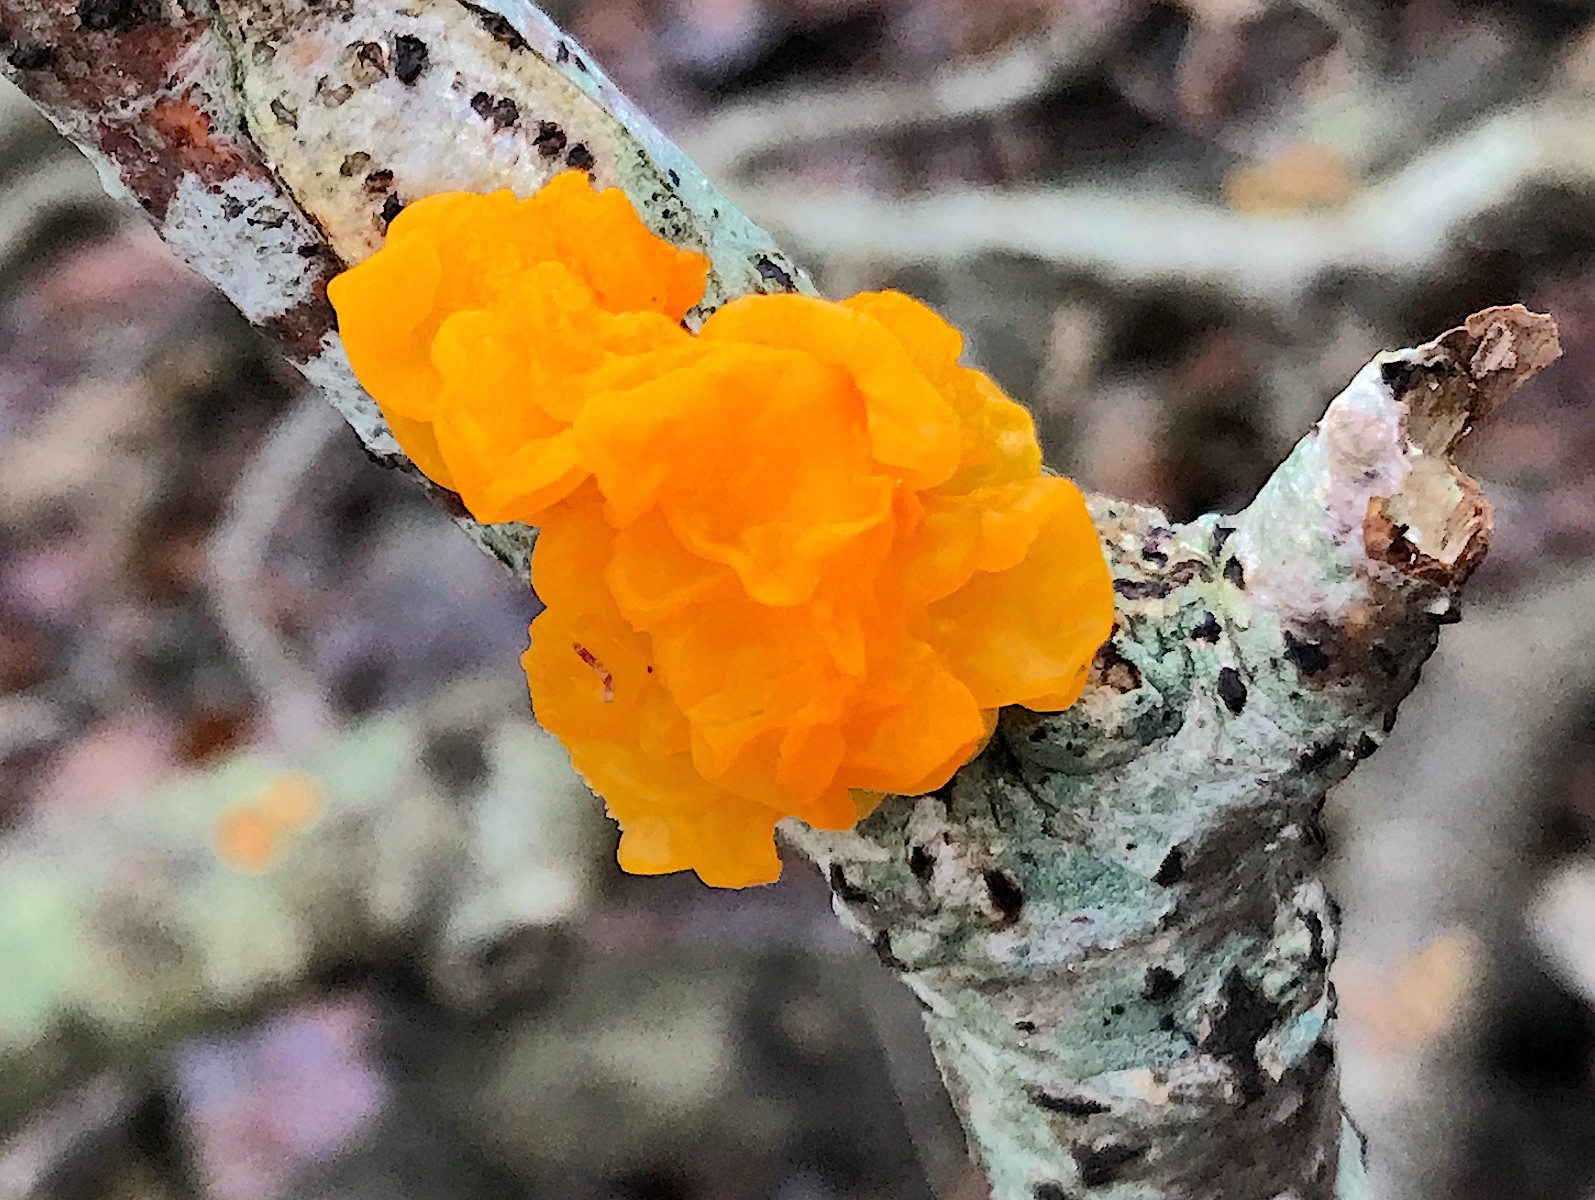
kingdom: Fungi
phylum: Basidiomycota
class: Tremellomycetes
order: Tremellales
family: Tremellaceae
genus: Tremella
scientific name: Tremella mesenterica
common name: gul bævresvamp
